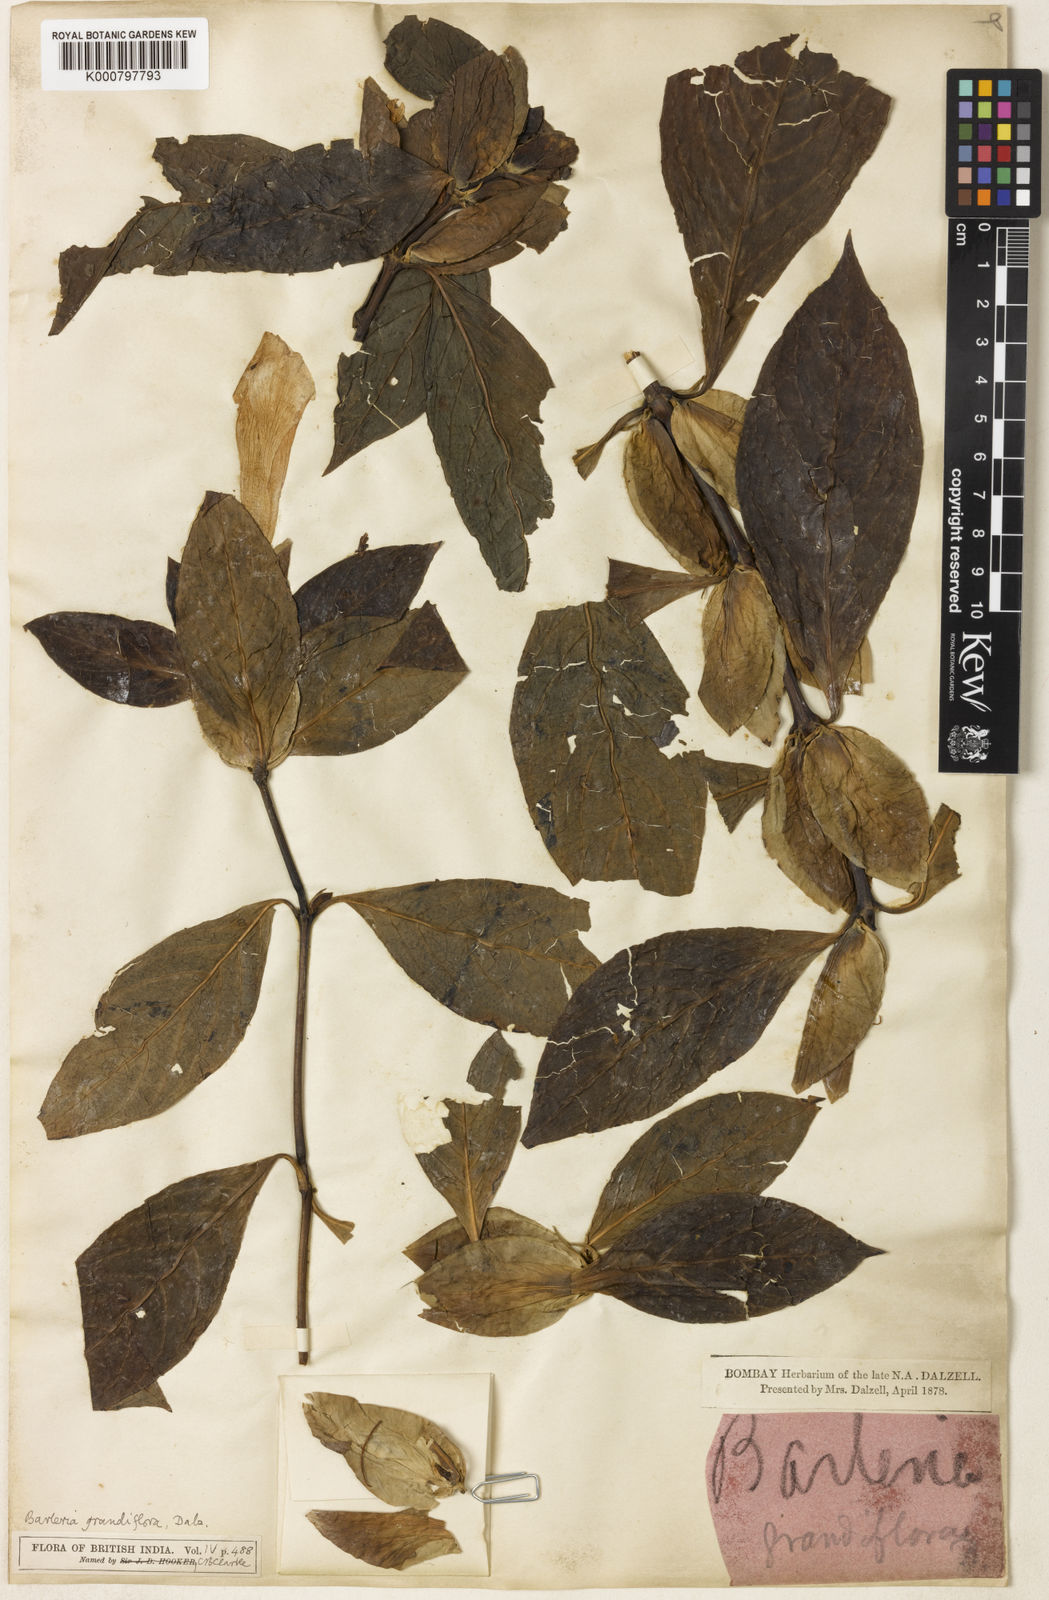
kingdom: Plantae
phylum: Tracheophyta
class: Magnoliopsida
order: Lamiales
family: Acanthaceae
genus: Barleria
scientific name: Barleria grandiflora
